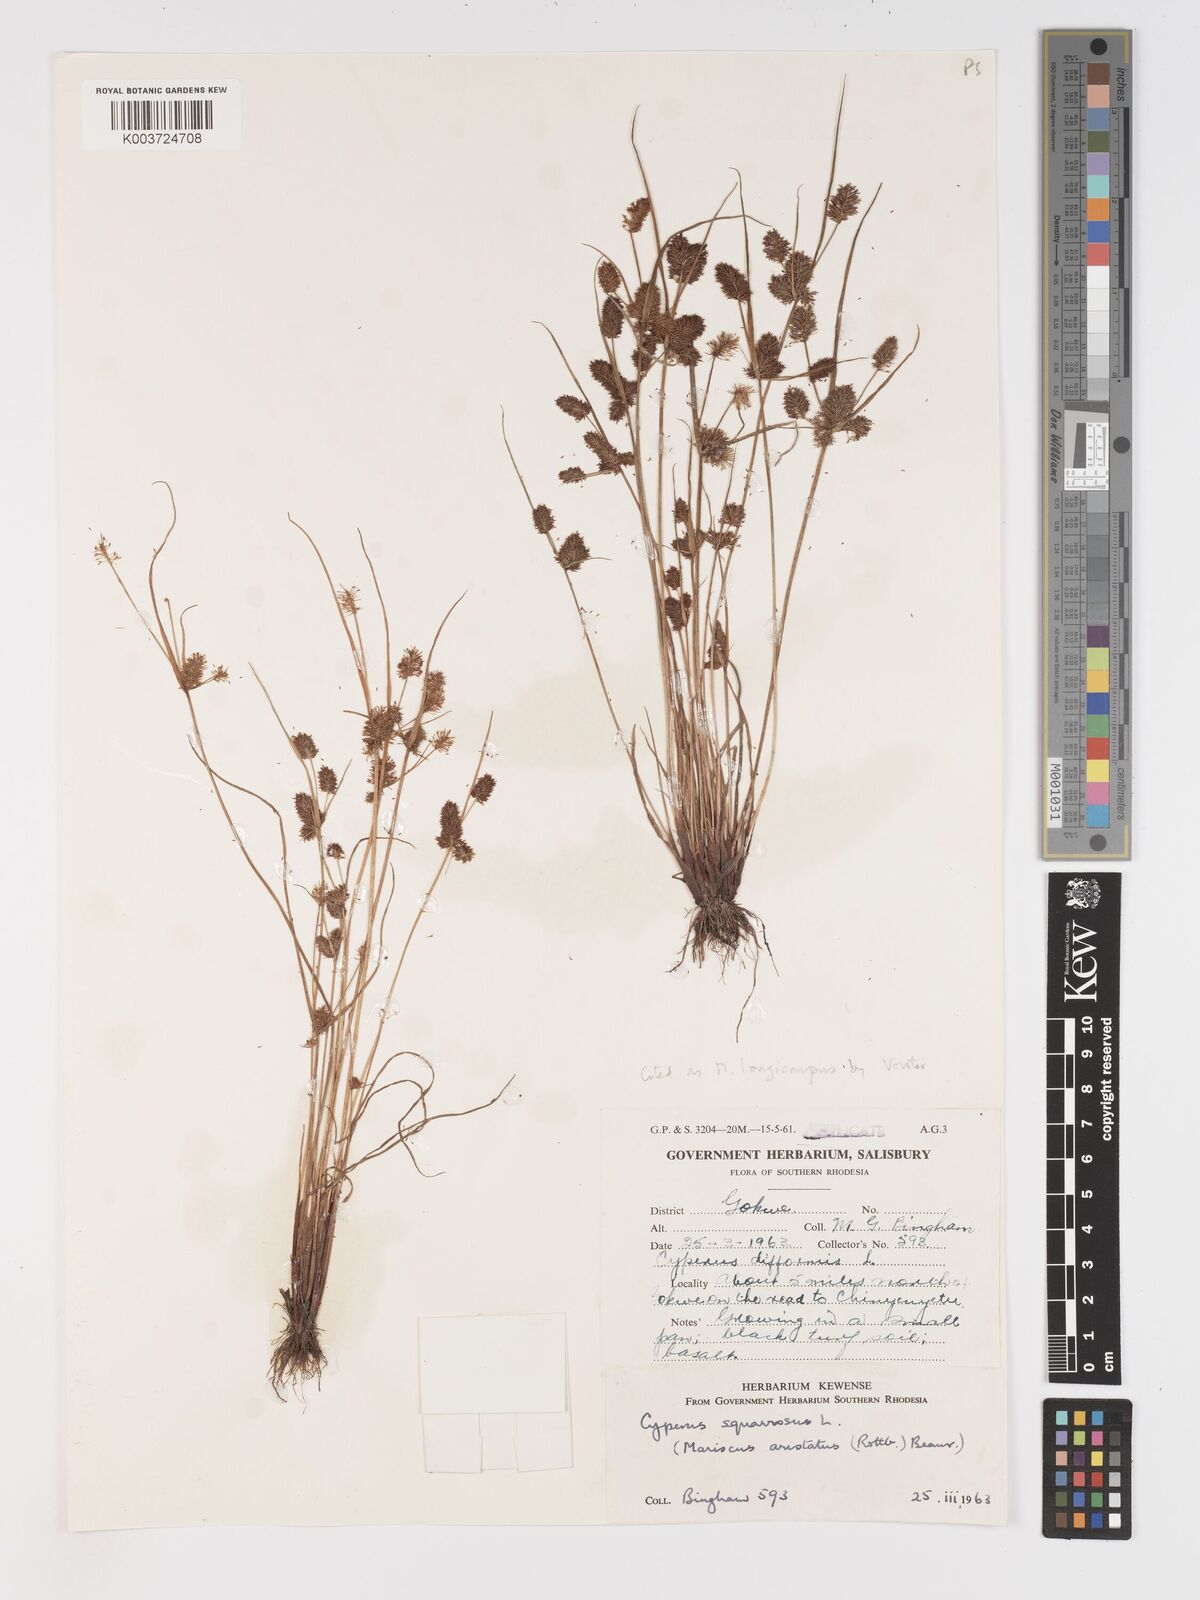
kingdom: Plantae
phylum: Tracheophyta
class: Liliopsida
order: Poales
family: Cyperaceae
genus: Cyperus
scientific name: Cyperus squarrosus
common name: Awned cyperus
